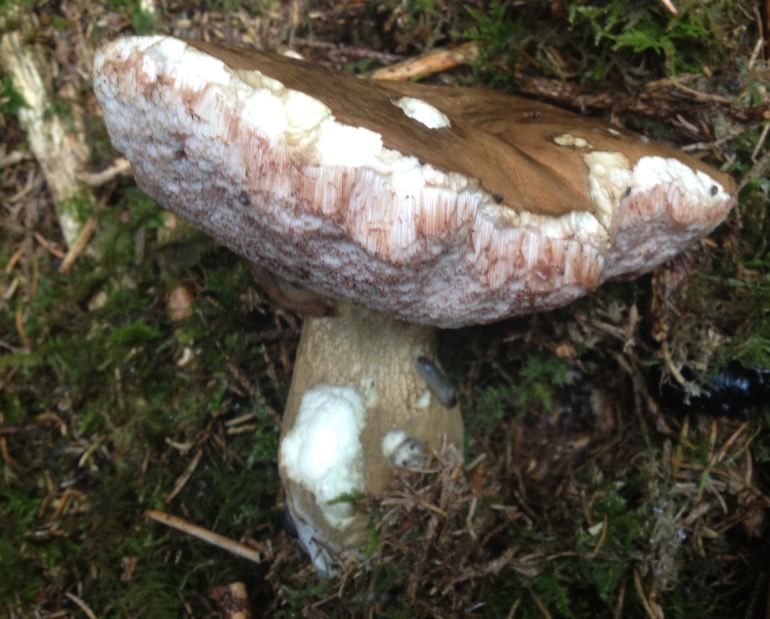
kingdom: Fungi
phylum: Basidiomycota
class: Agaricomycetes
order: Boletales
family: Boletaceae
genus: Tylopilus
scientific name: Tylopilus felleus
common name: galderørhat
